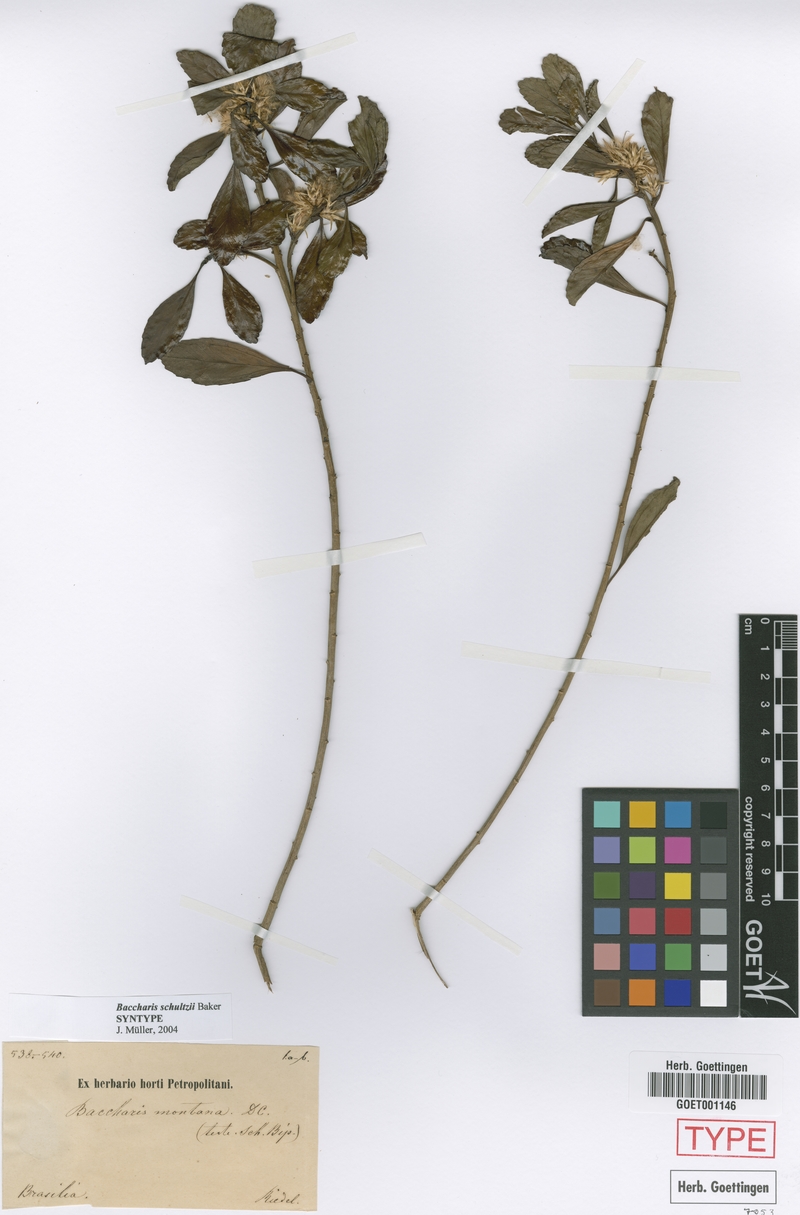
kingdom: Plantae
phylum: Tracheophyta
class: Magnoliopsida
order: Asterales
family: Asteraceae
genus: Baccharis
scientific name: Baccharis lateralis
